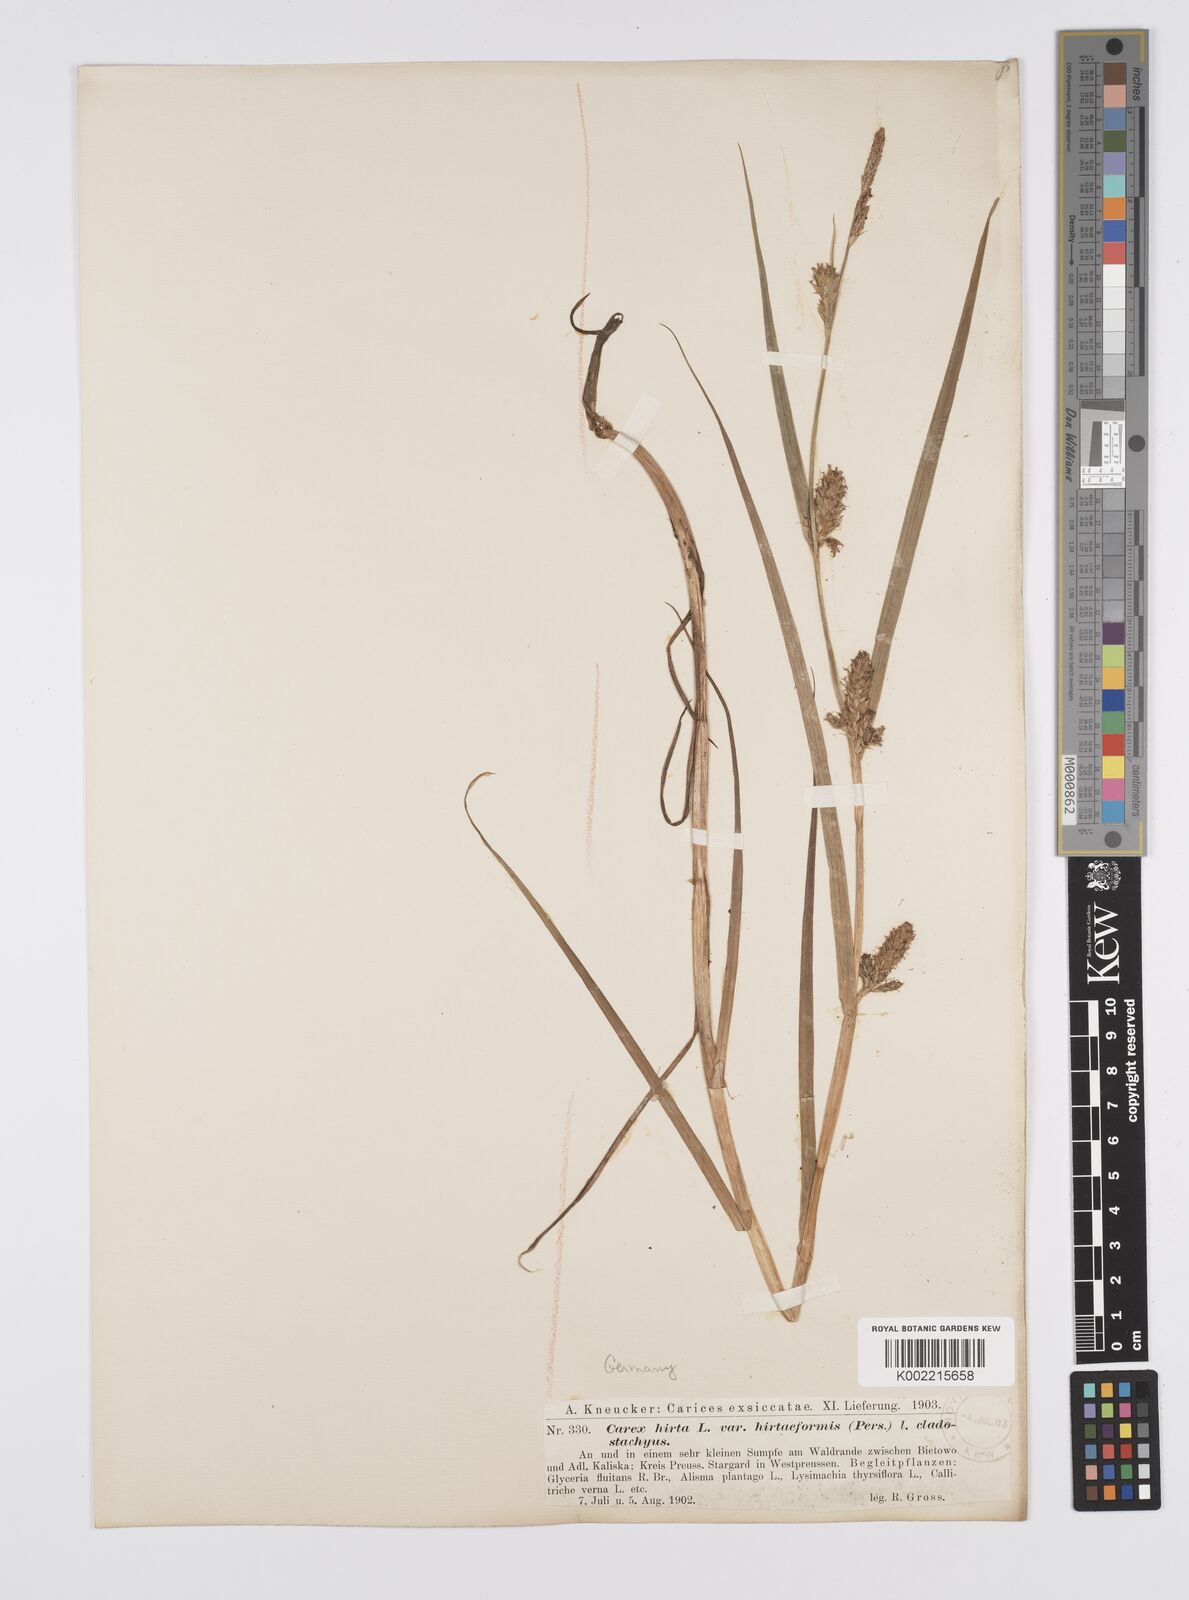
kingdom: Plantae
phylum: Tracheophyta
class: Liliopsida
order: Poales
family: Cyperaceae
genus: Carex
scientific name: Carex hirta
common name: Hairy sedge
